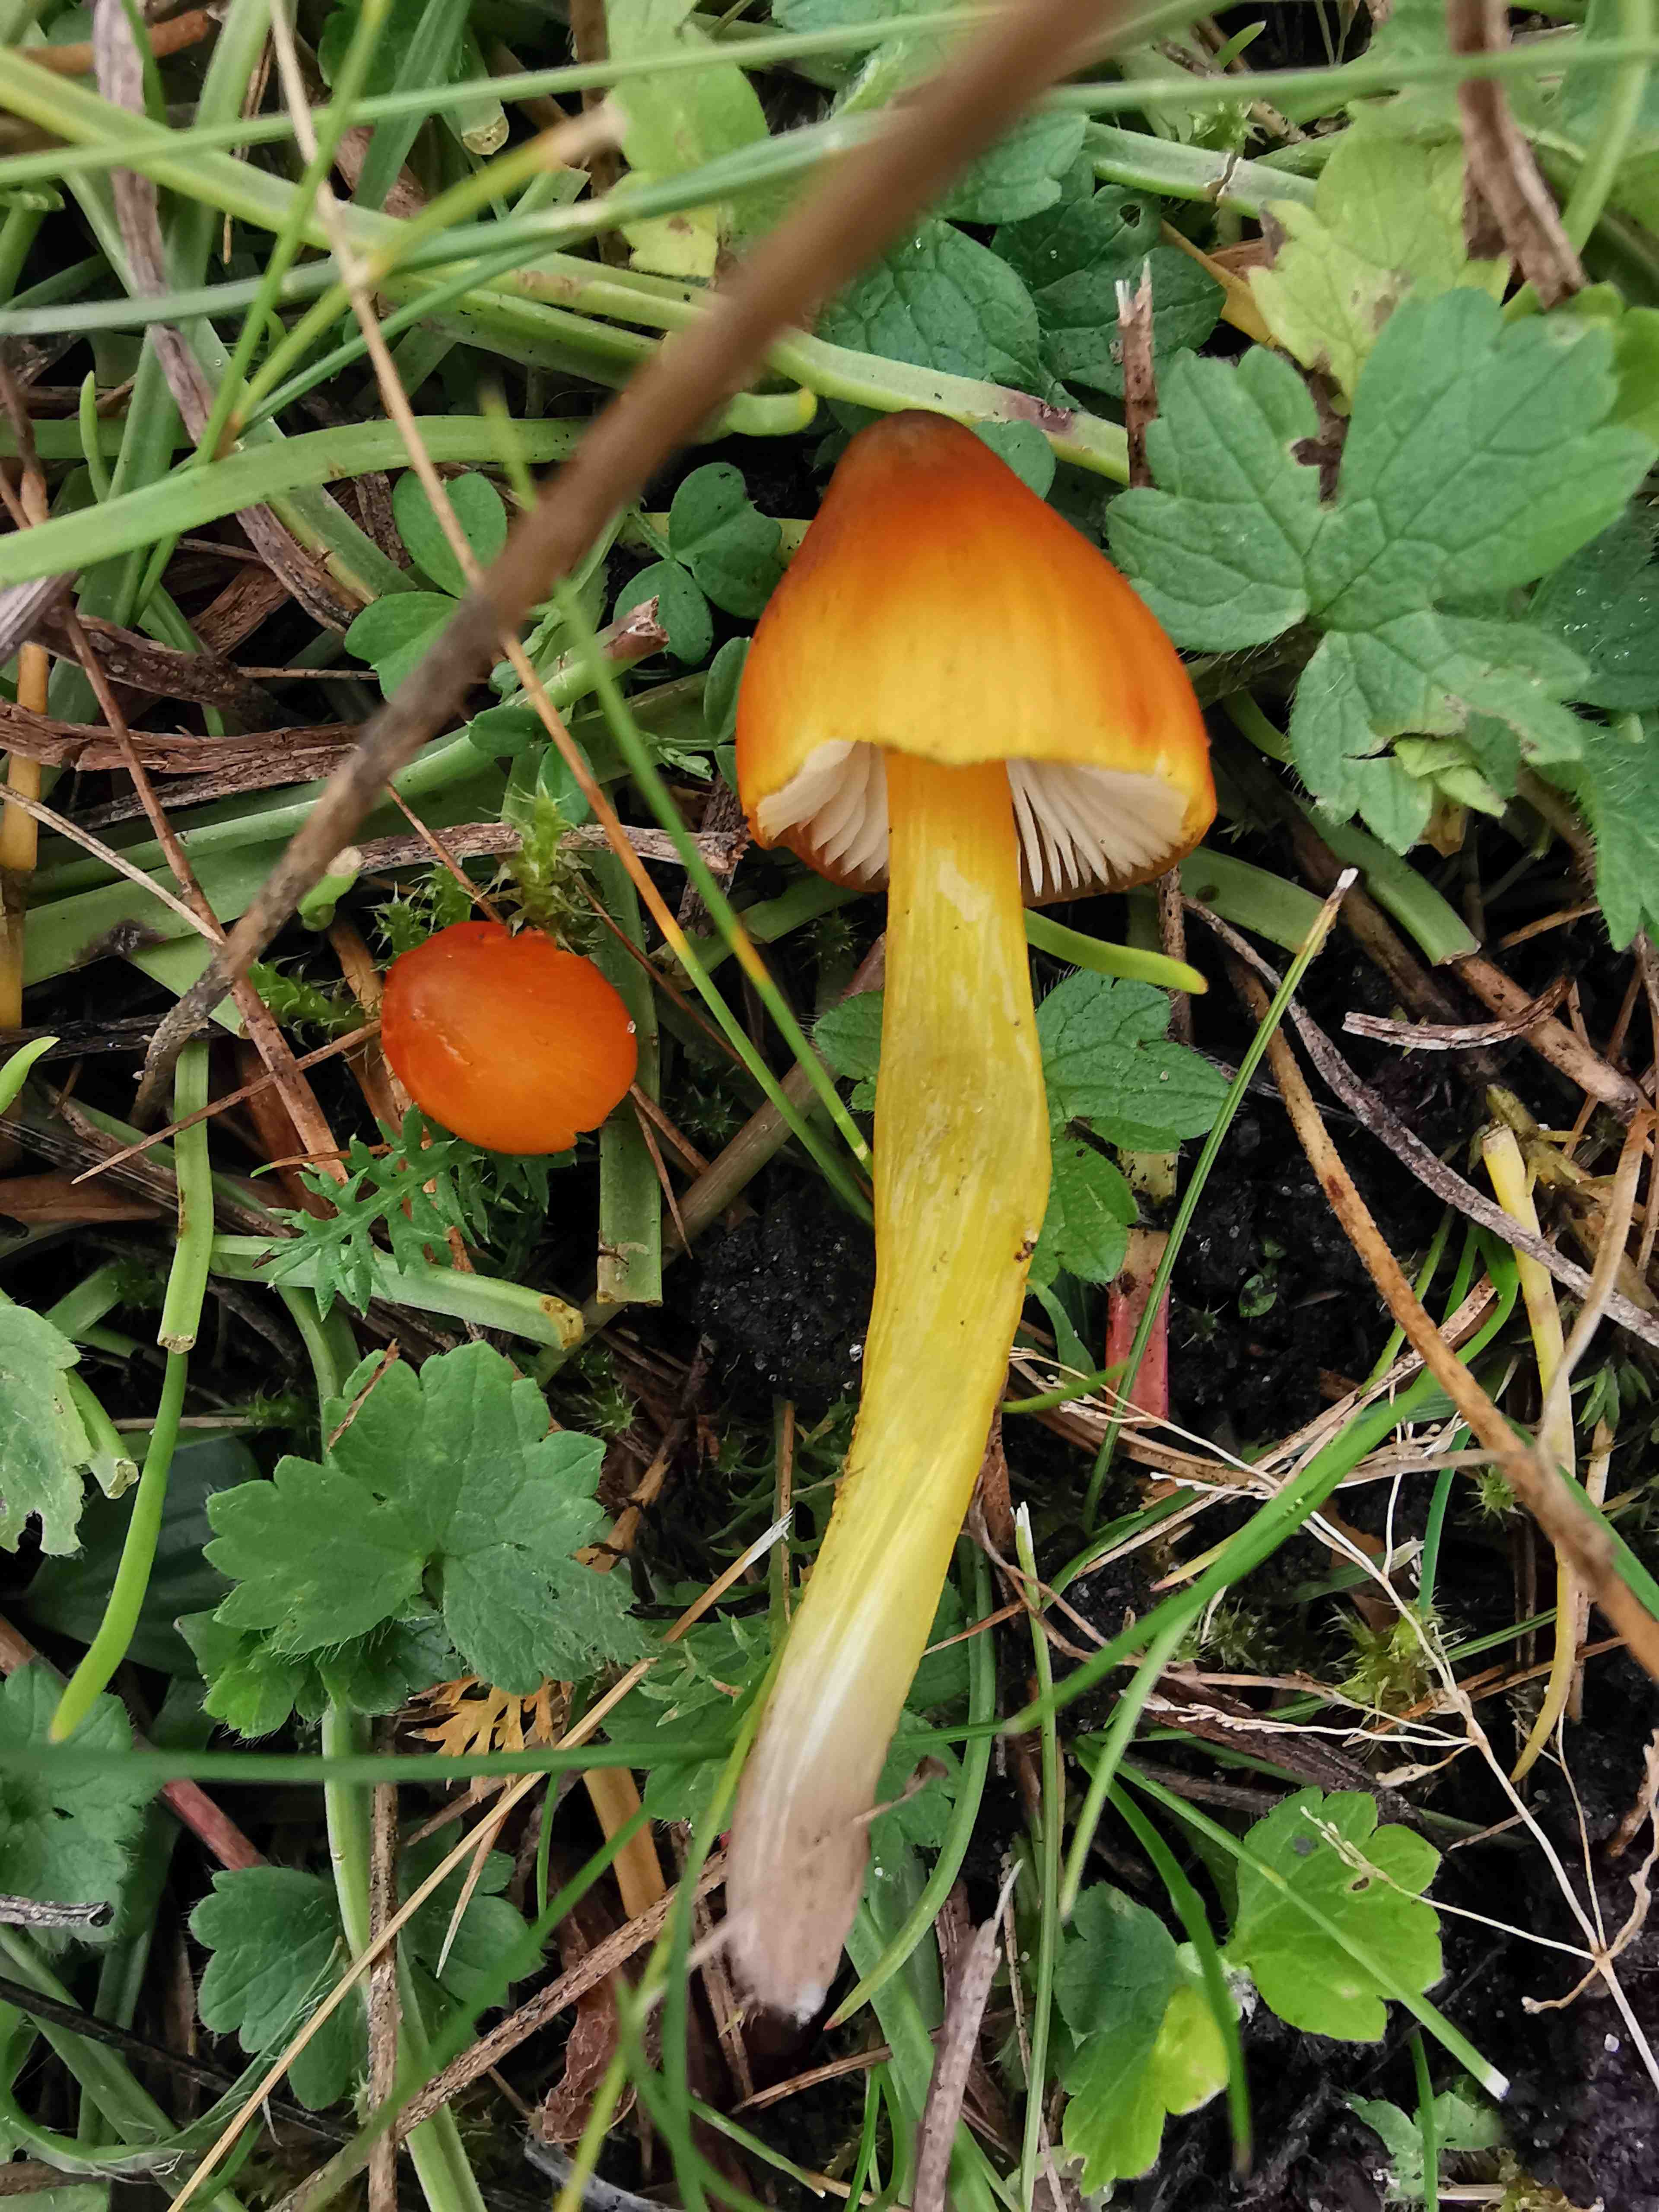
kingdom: Fungi
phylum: Basidiomycota
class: Agaricomycetes
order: Agaricales
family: Hygrophoraceae
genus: Hygrocybe
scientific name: Hygrocybe conica
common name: kegle-vokshat
